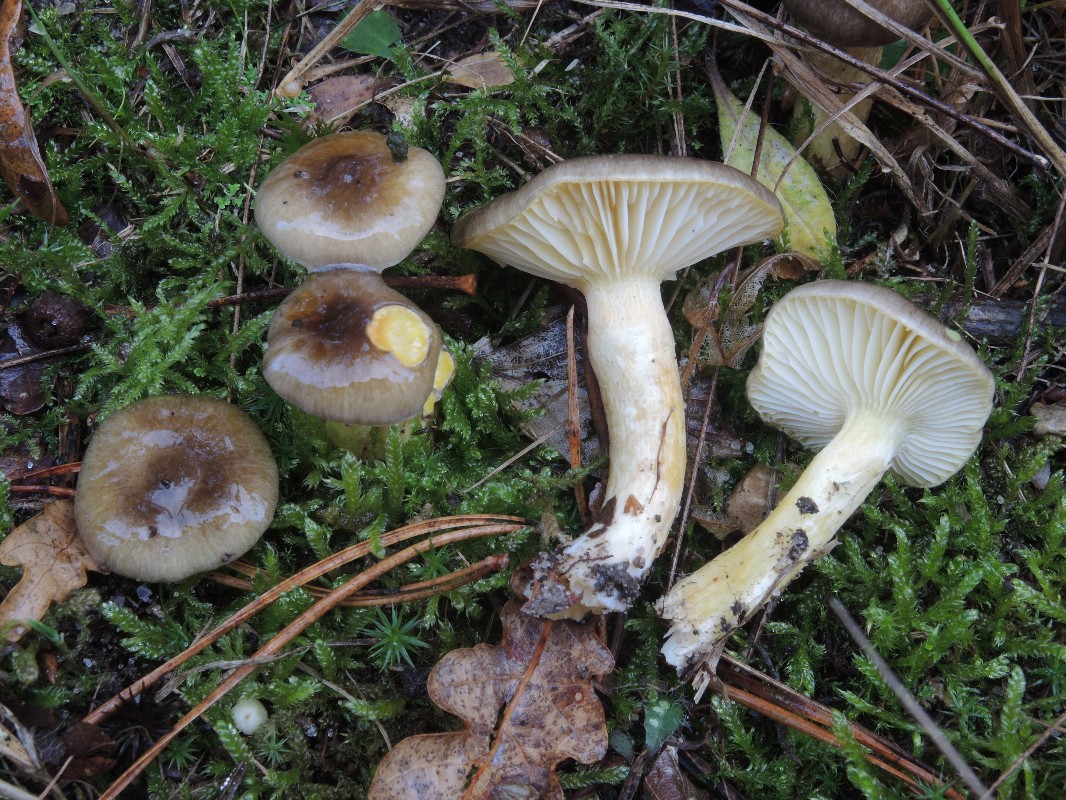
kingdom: Fungi
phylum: Basidiomycota
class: Agaricomycetes
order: Agaricales
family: Hygrophoraceae
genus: Hygrophorus
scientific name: Hygrophorus hypothejus
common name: frost-sneglehat
